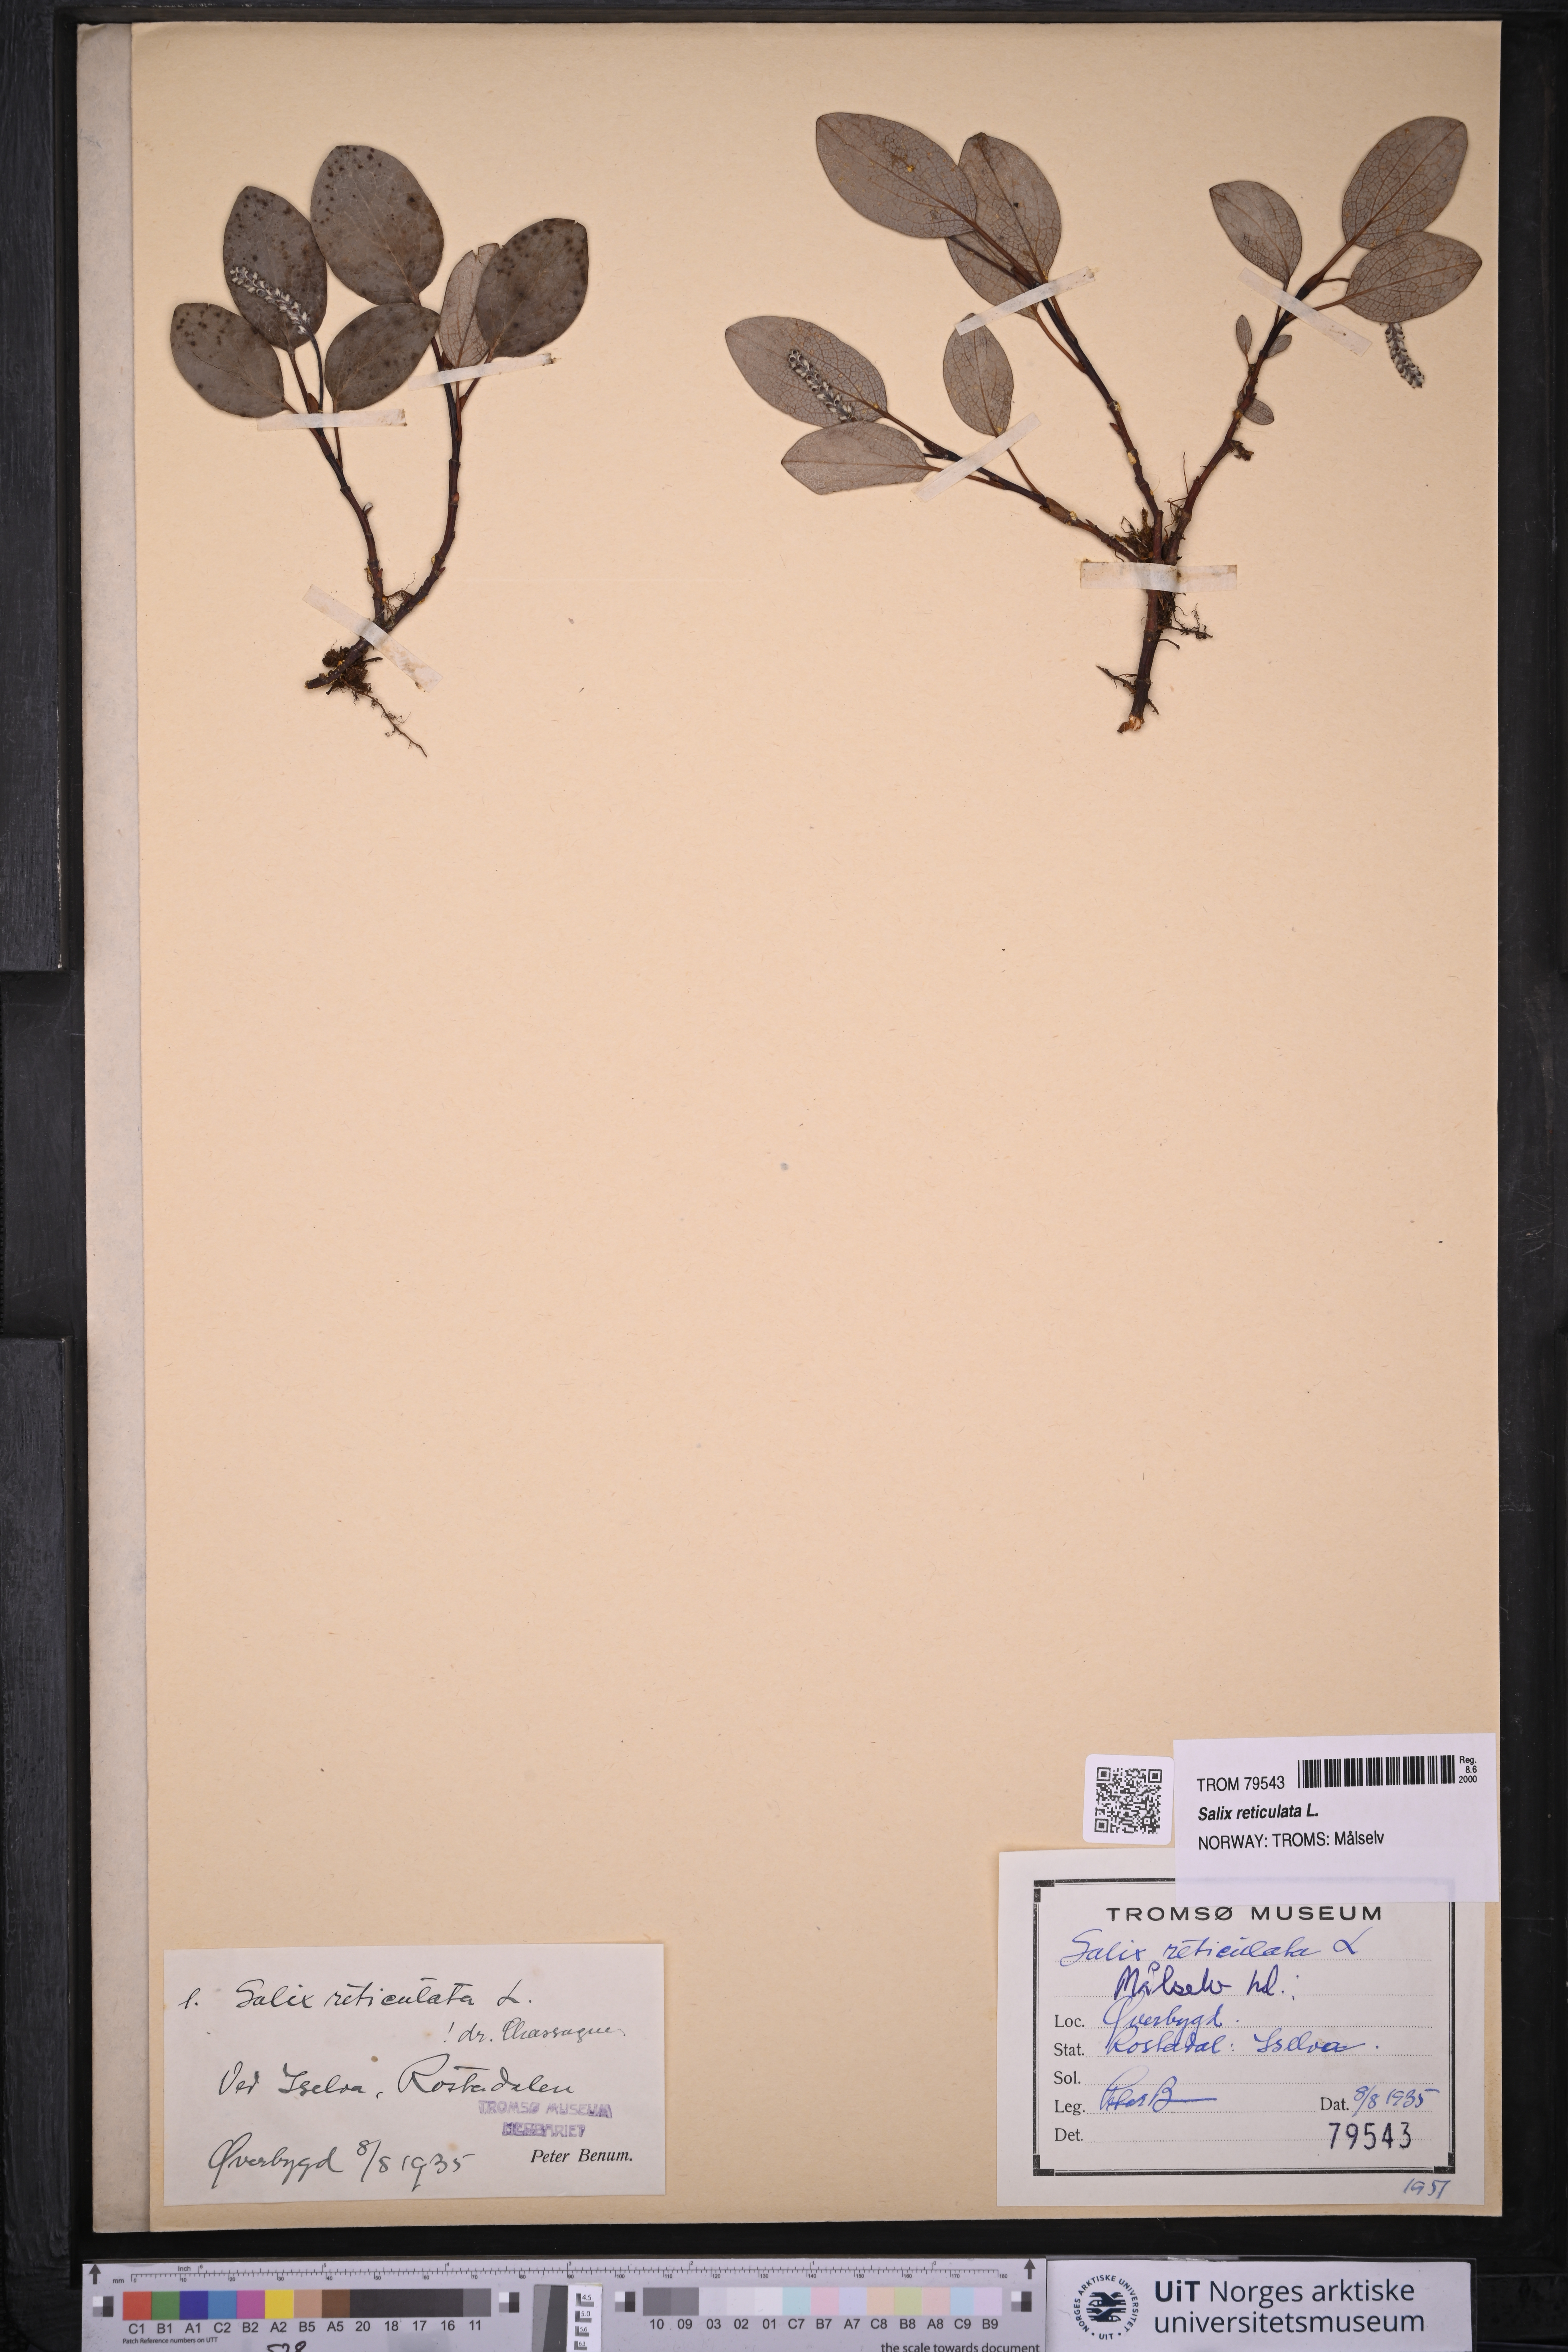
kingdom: Plantae
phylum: Tracheophyta
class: Magnoliopsida
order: Malpighiales
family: Salicaceae
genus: Salix
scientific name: Salix reticulata
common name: Net-leaved willow
